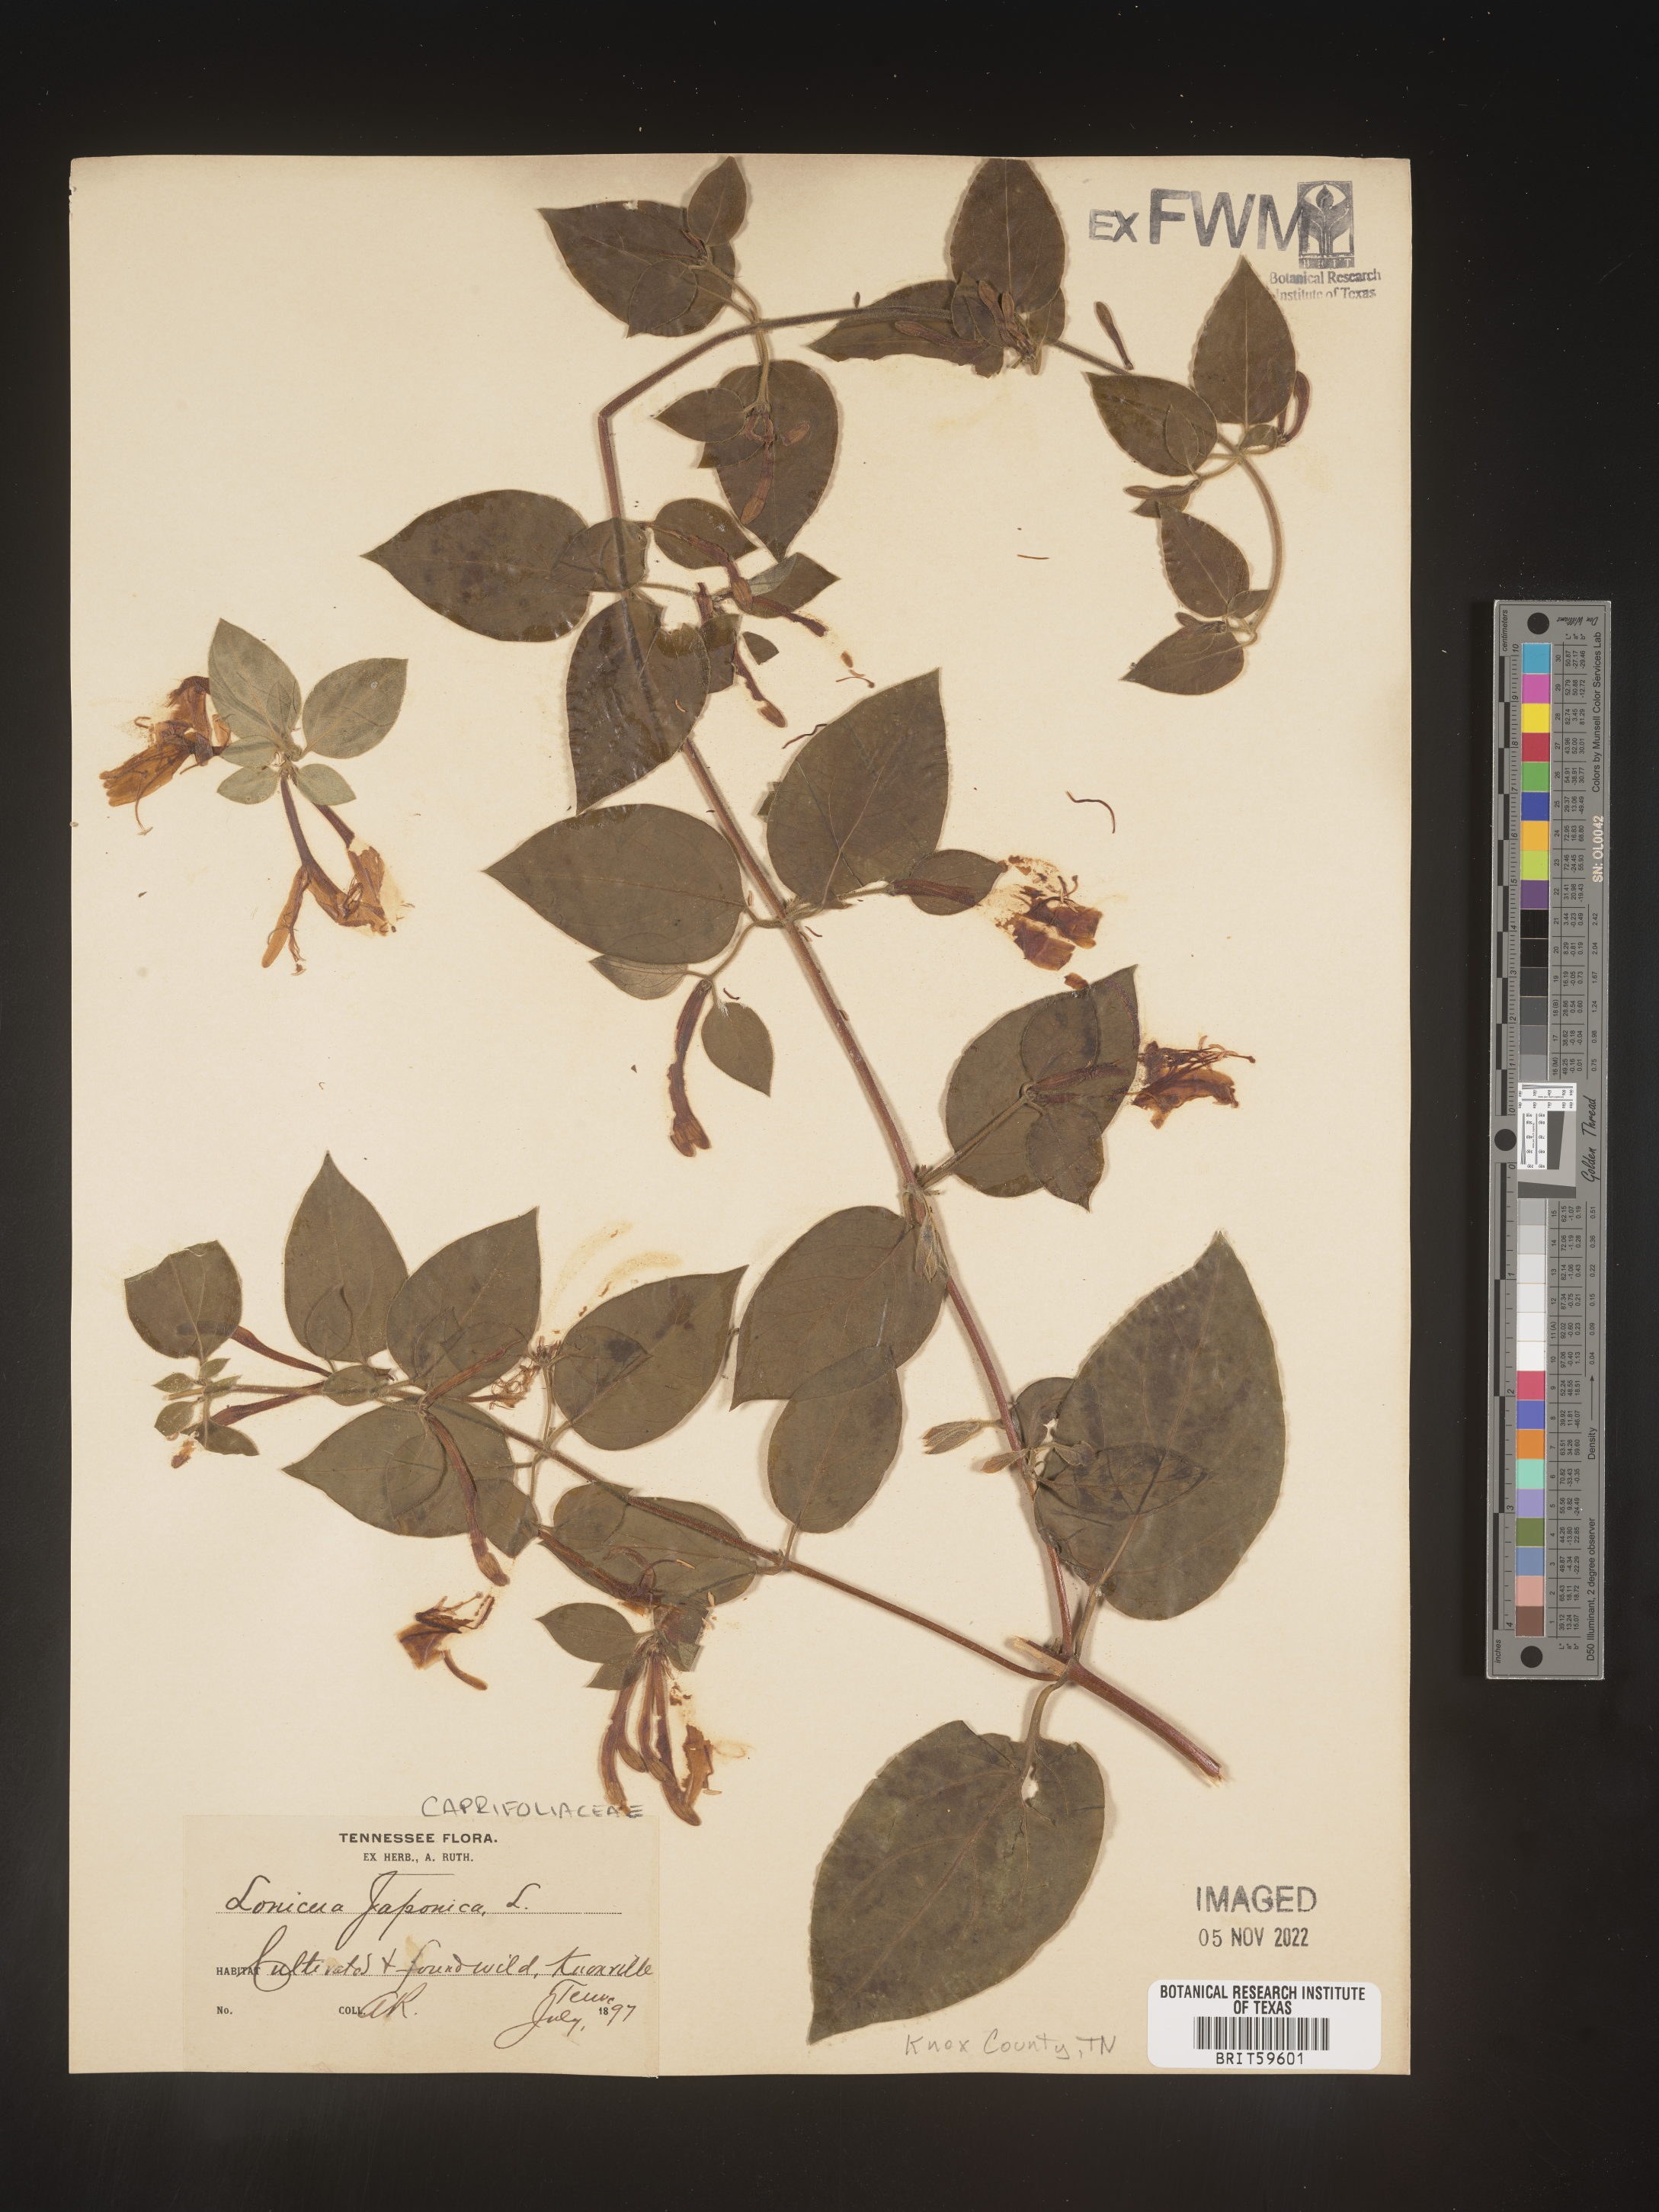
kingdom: Plantae
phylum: Tracheophyta
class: Magnoliopsida
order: Dipsacales
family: Caprifoliaceae
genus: Lonicera
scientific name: Lonicera
